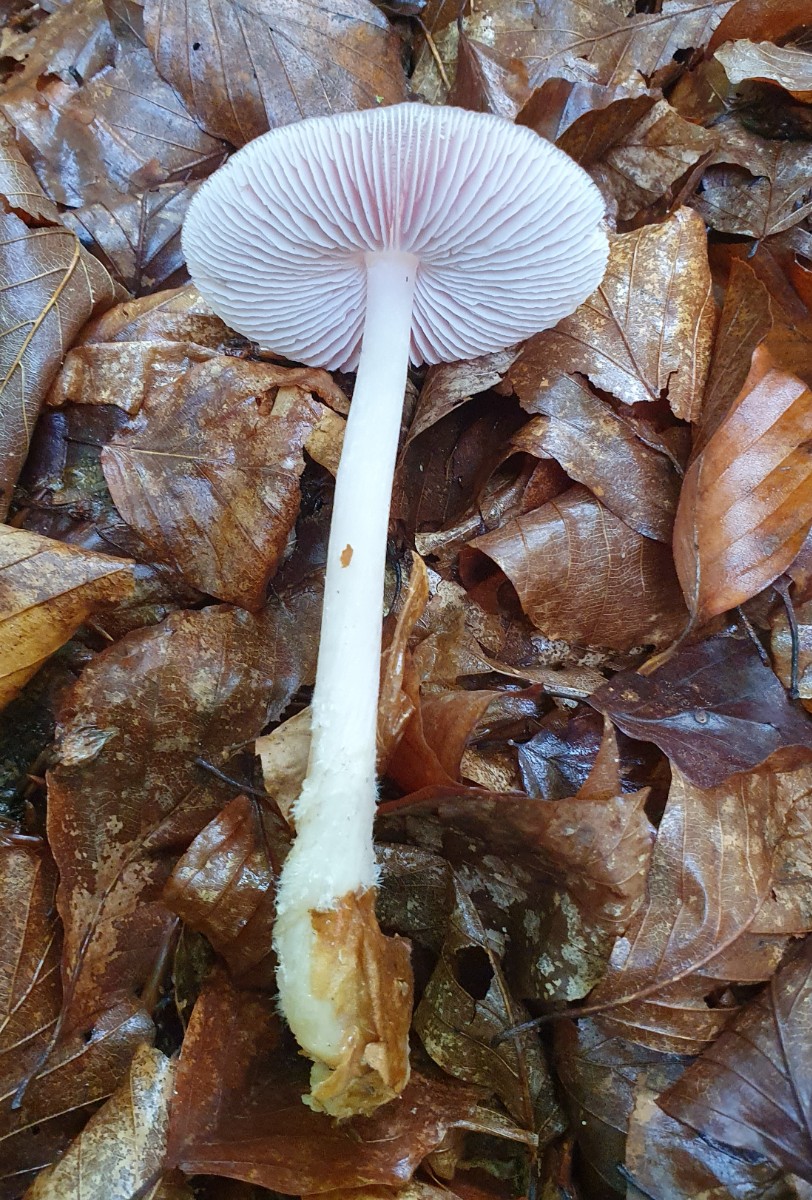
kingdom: Fungi
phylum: Basidiomycota
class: Agaricomycetes
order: Agaricales
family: Mycenaceae
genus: Mycena
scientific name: Mycena rosea
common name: rosa huesvamp
